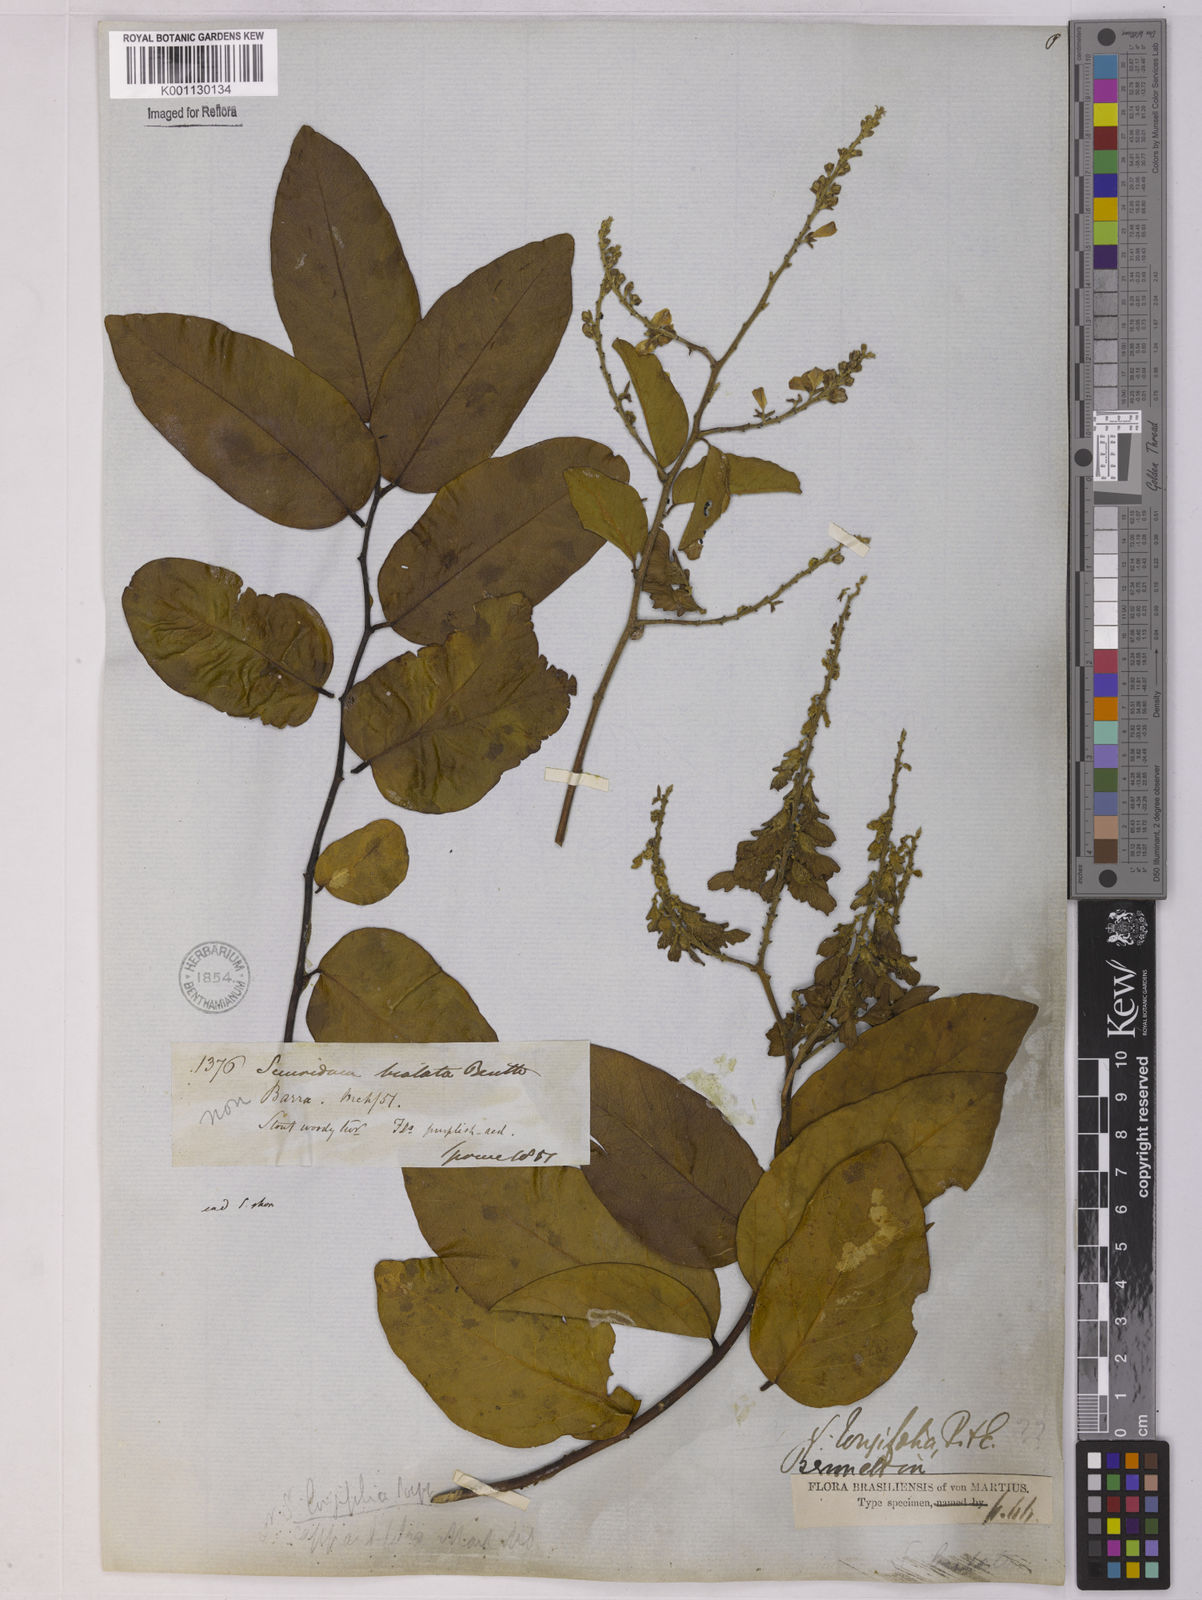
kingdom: Plantae
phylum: Tracheophyta
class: Magnoliopsida
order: Fabales
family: Polygalaceae
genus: Securidaca
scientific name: Securidaca longifolia
